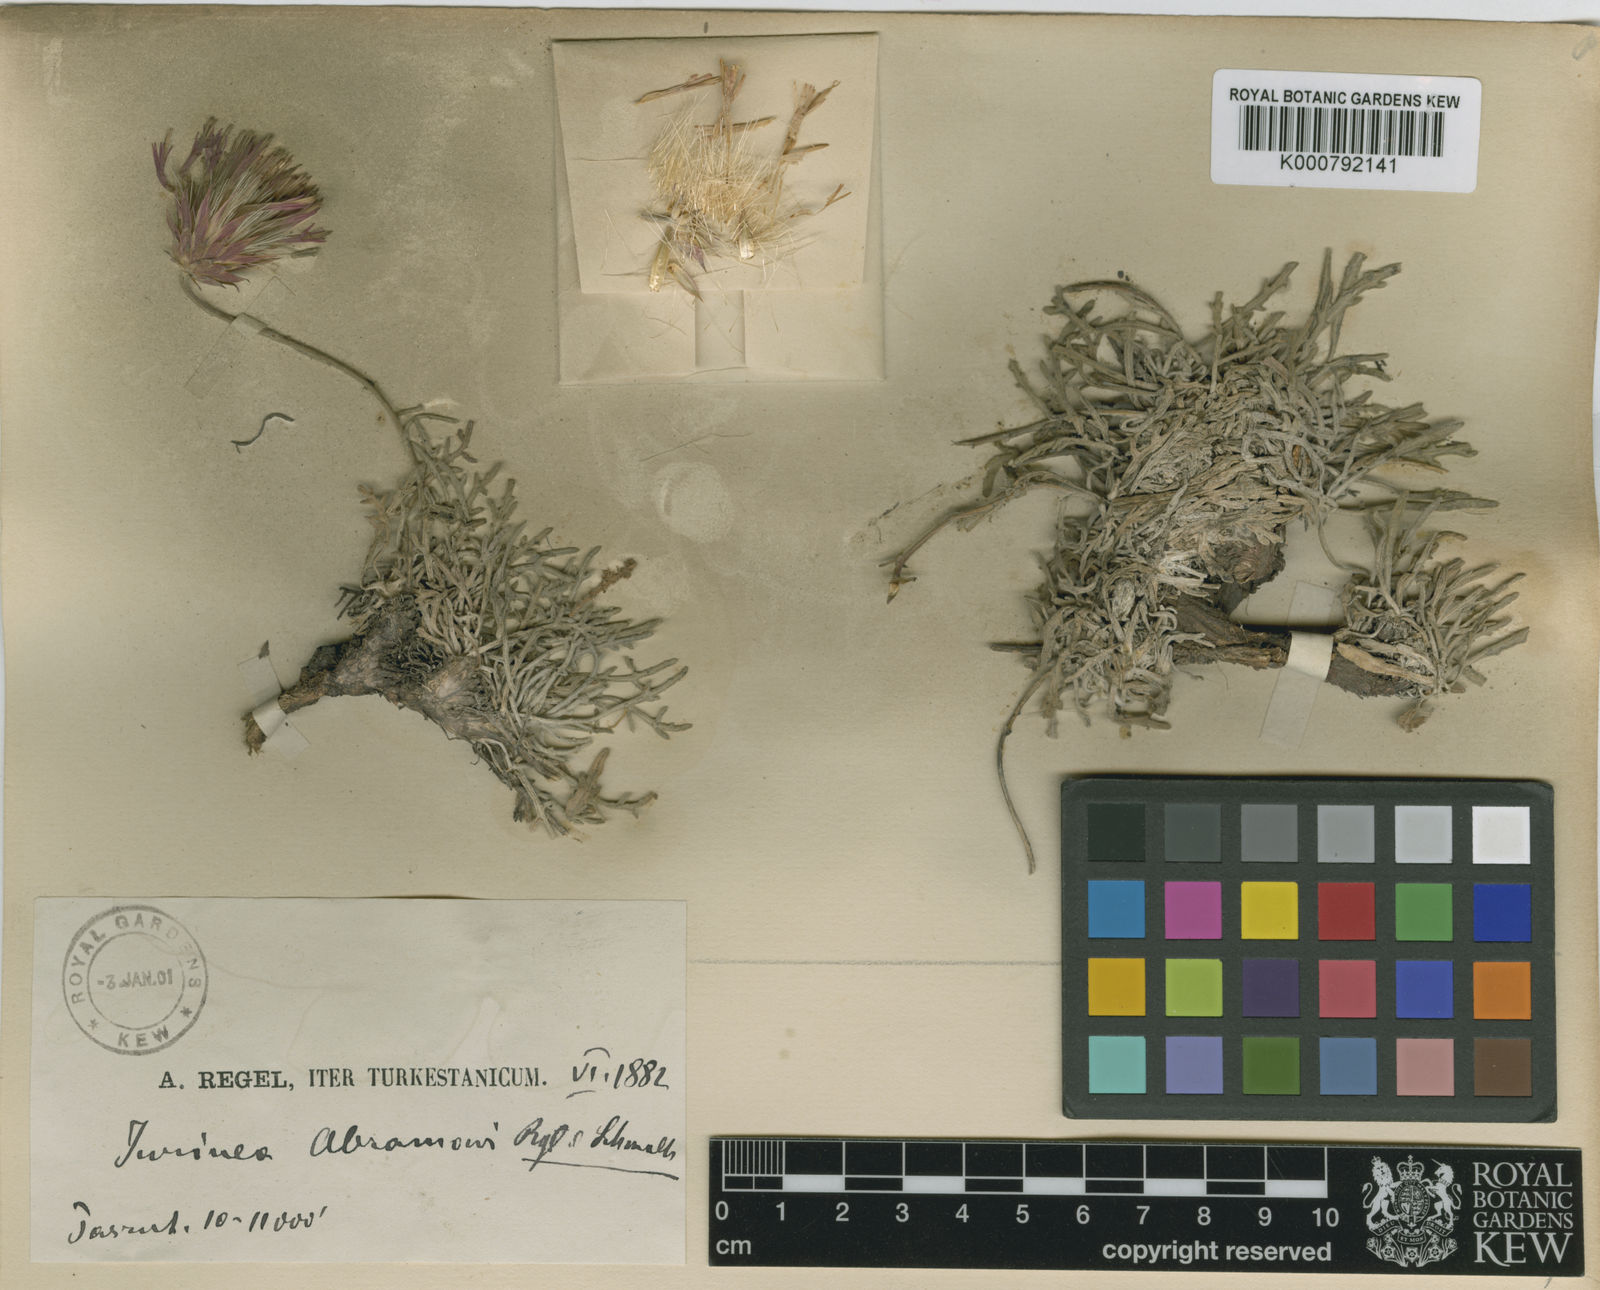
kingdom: Plantae
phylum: Tracheophyta
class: Magnoliopsida
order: Asterales
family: Asteraceae
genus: Jurinea
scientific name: Jurinea
